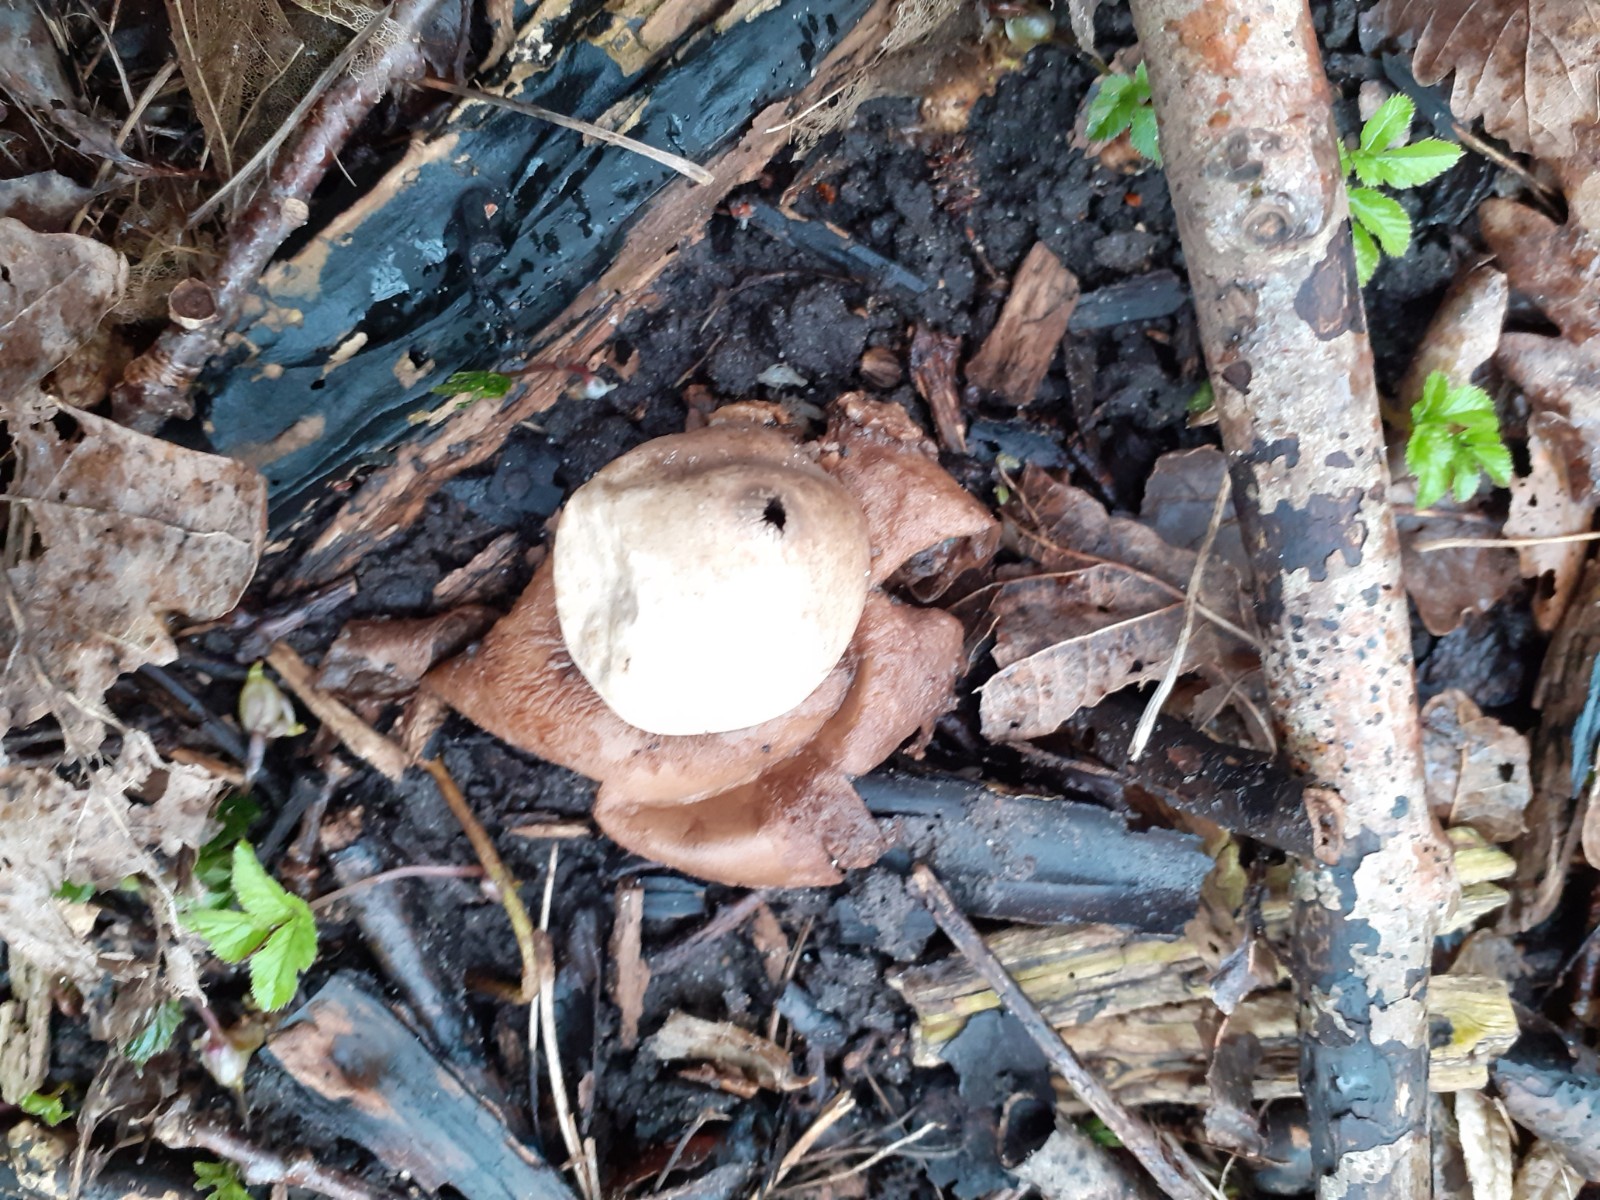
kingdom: Fungi
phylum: Basidiomycota
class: Agaricomycetes
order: Geastrales
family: Geastraceae
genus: Geastrum
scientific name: Geastrum michelianum
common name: kødet stjernebold
